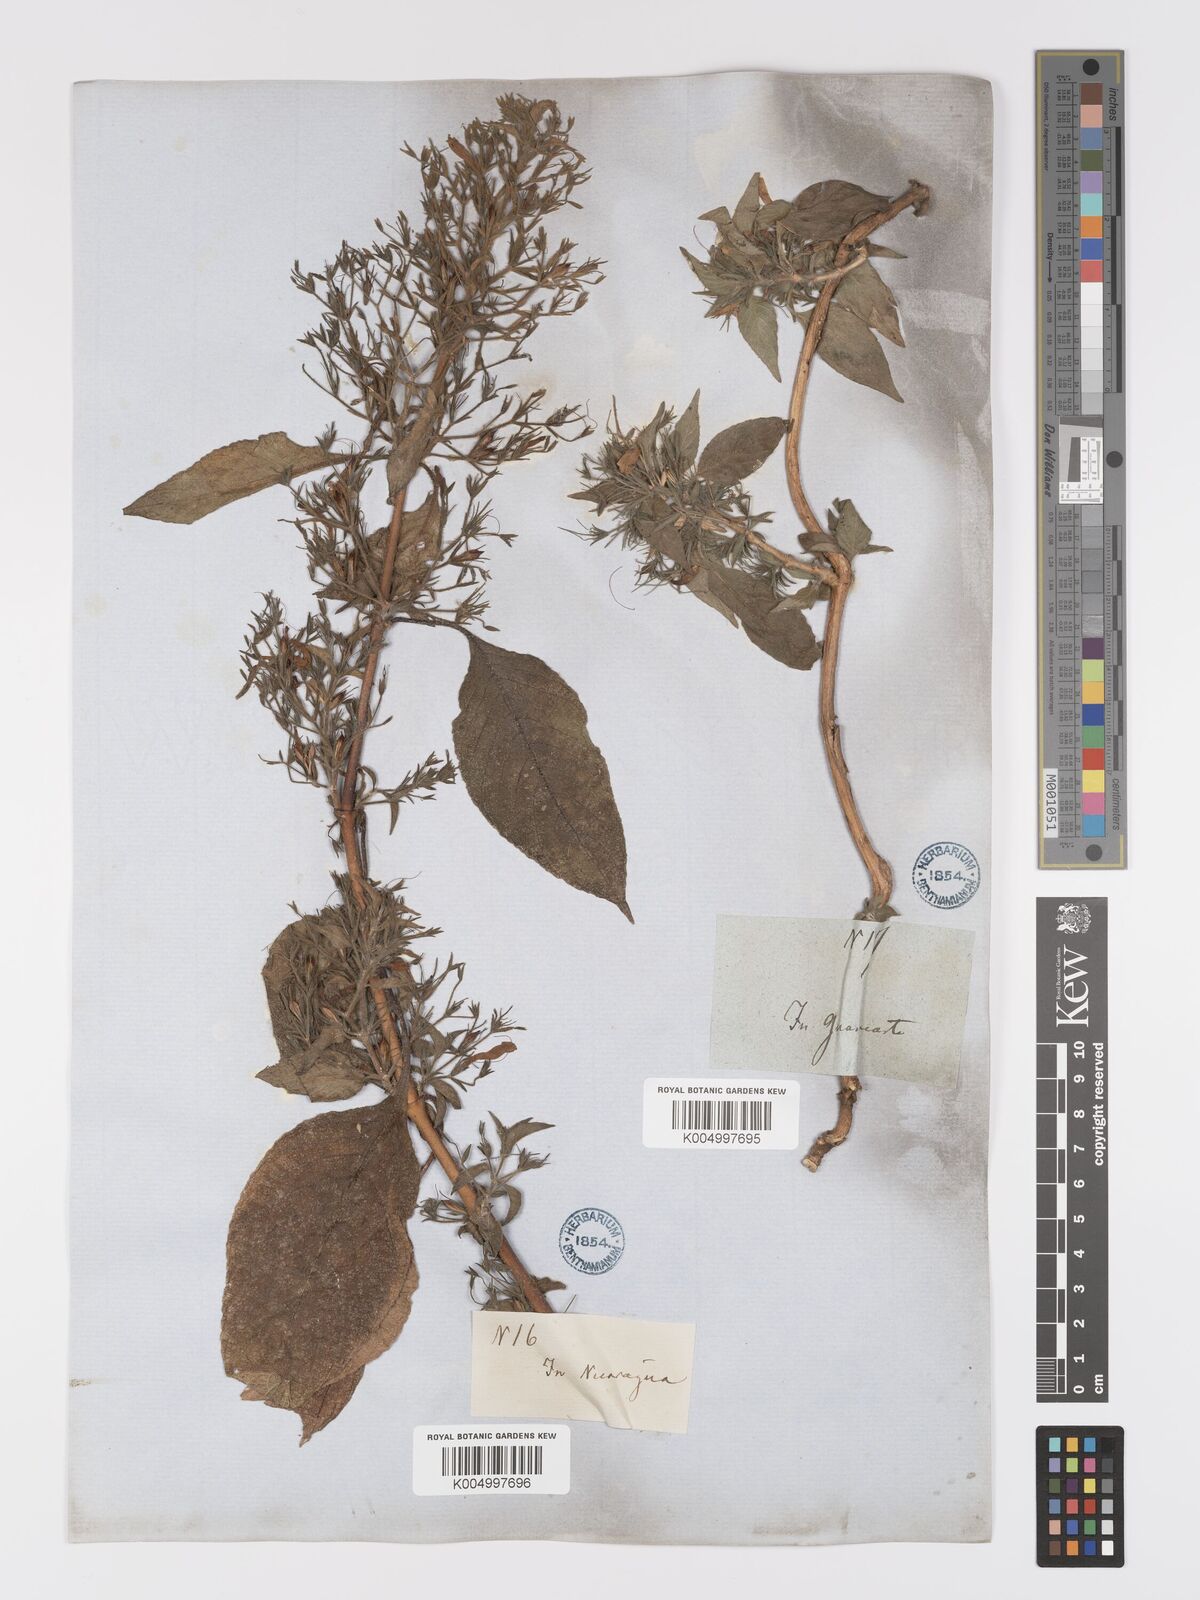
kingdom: Plantae
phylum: Tracheophyta
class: Magnoliopsida
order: Lamiales
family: Acanthaceae
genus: Ruellia
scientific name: Ruellia inundata
